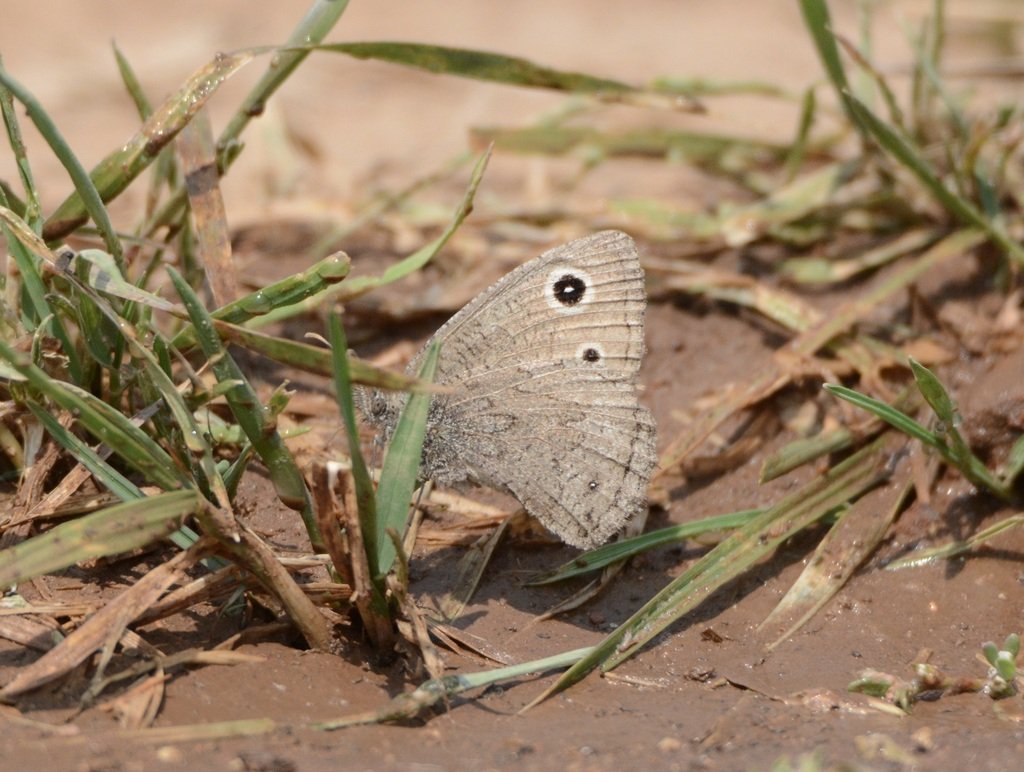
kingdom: Animalia
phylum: Arthropoda
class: Insecta
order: Lepidoptera
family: Nymphalidae
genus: Cercyonis
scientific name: Cercyonis sthenele
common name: Great Basin Wood-Nymph
